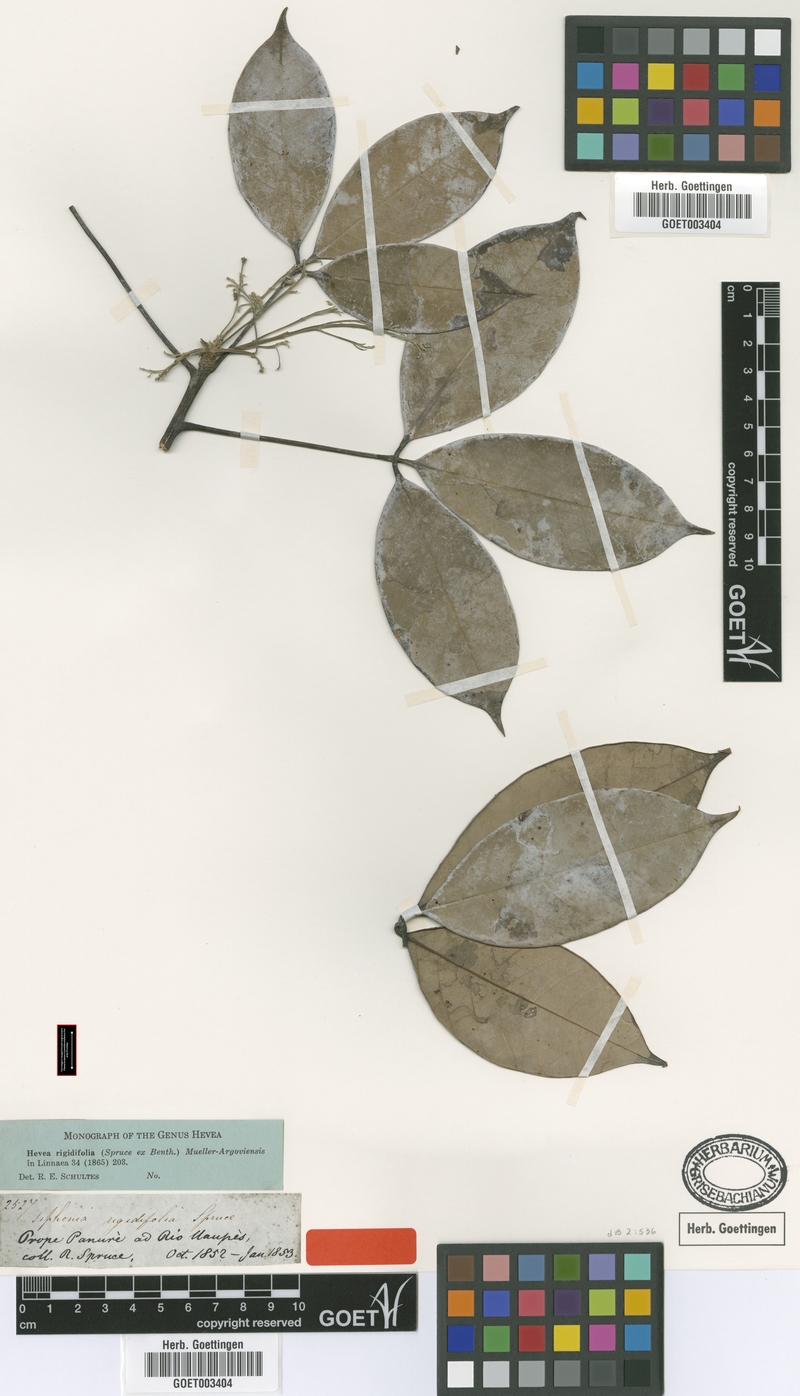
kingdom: Plantae
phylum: Tracheophyta
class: Magnoliopsida
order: Malpighiales
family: Euphorbiaceae
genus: Hevea
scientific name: Hevea rigidifolia
